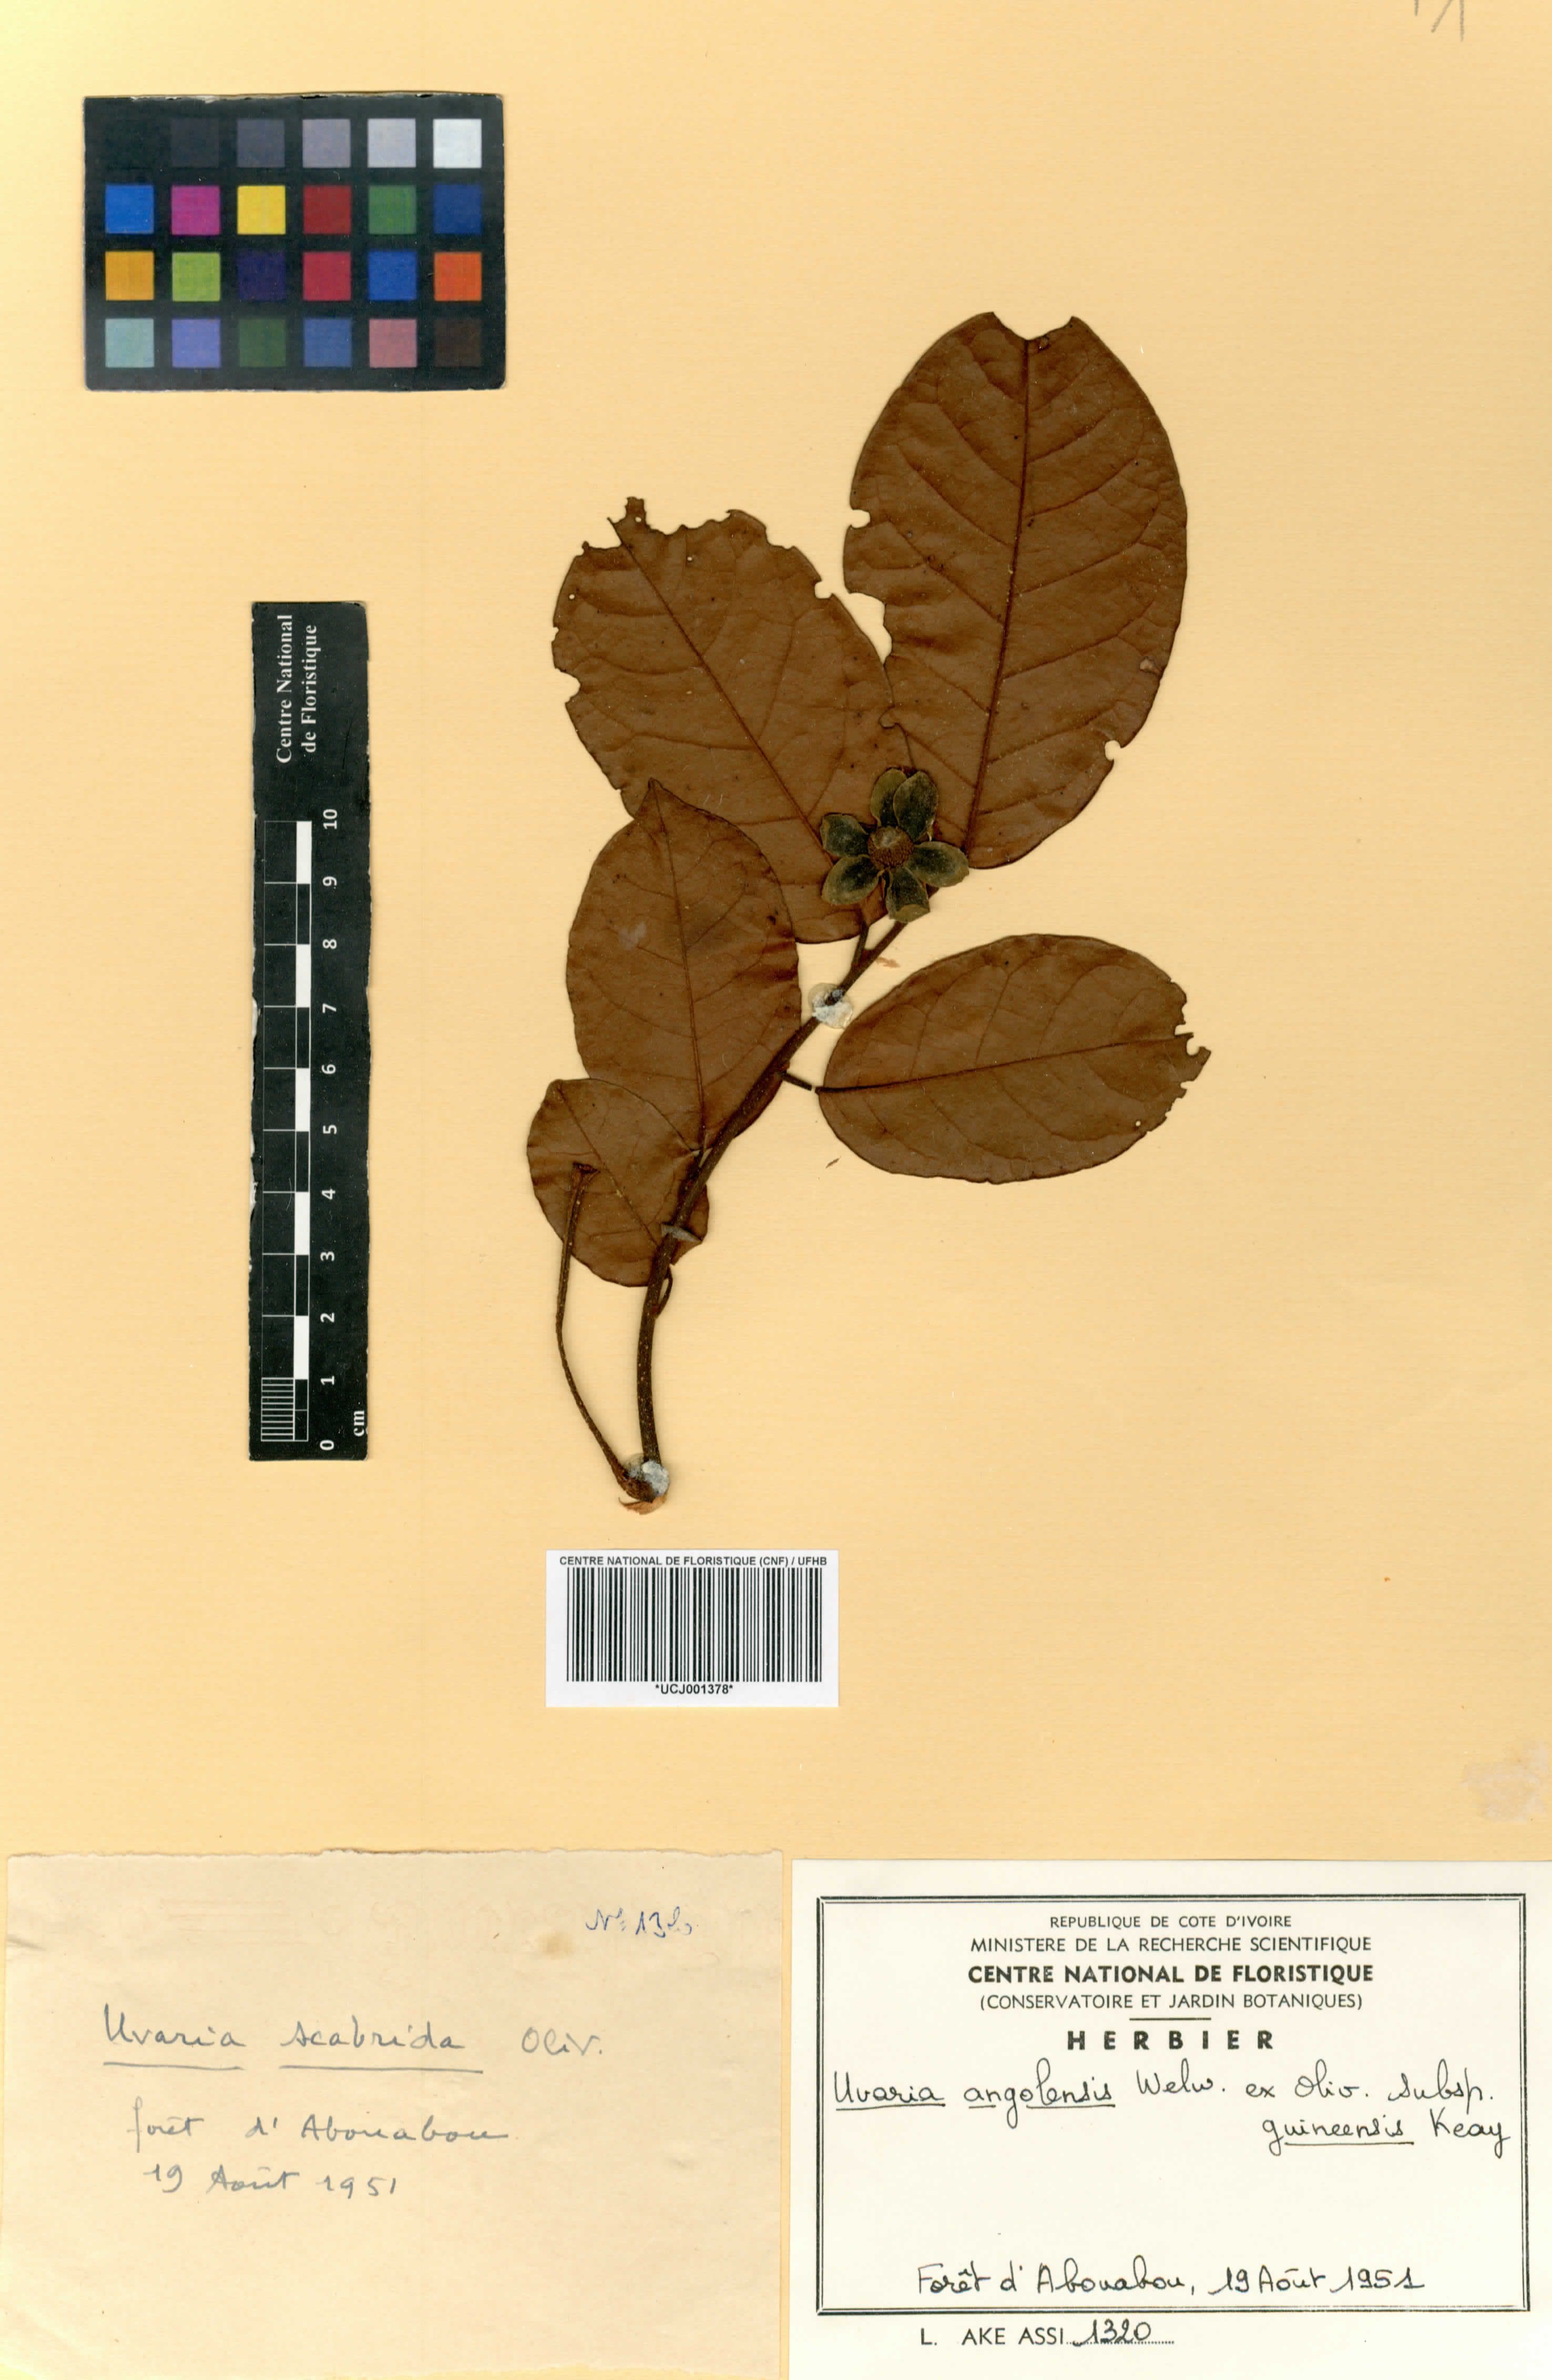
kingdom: Plantae
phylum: Tracheophyta
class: Magnoliopsida
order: Magnoliales
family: Annonaceae
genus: Uvaria
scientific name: Uvaria angolensis
